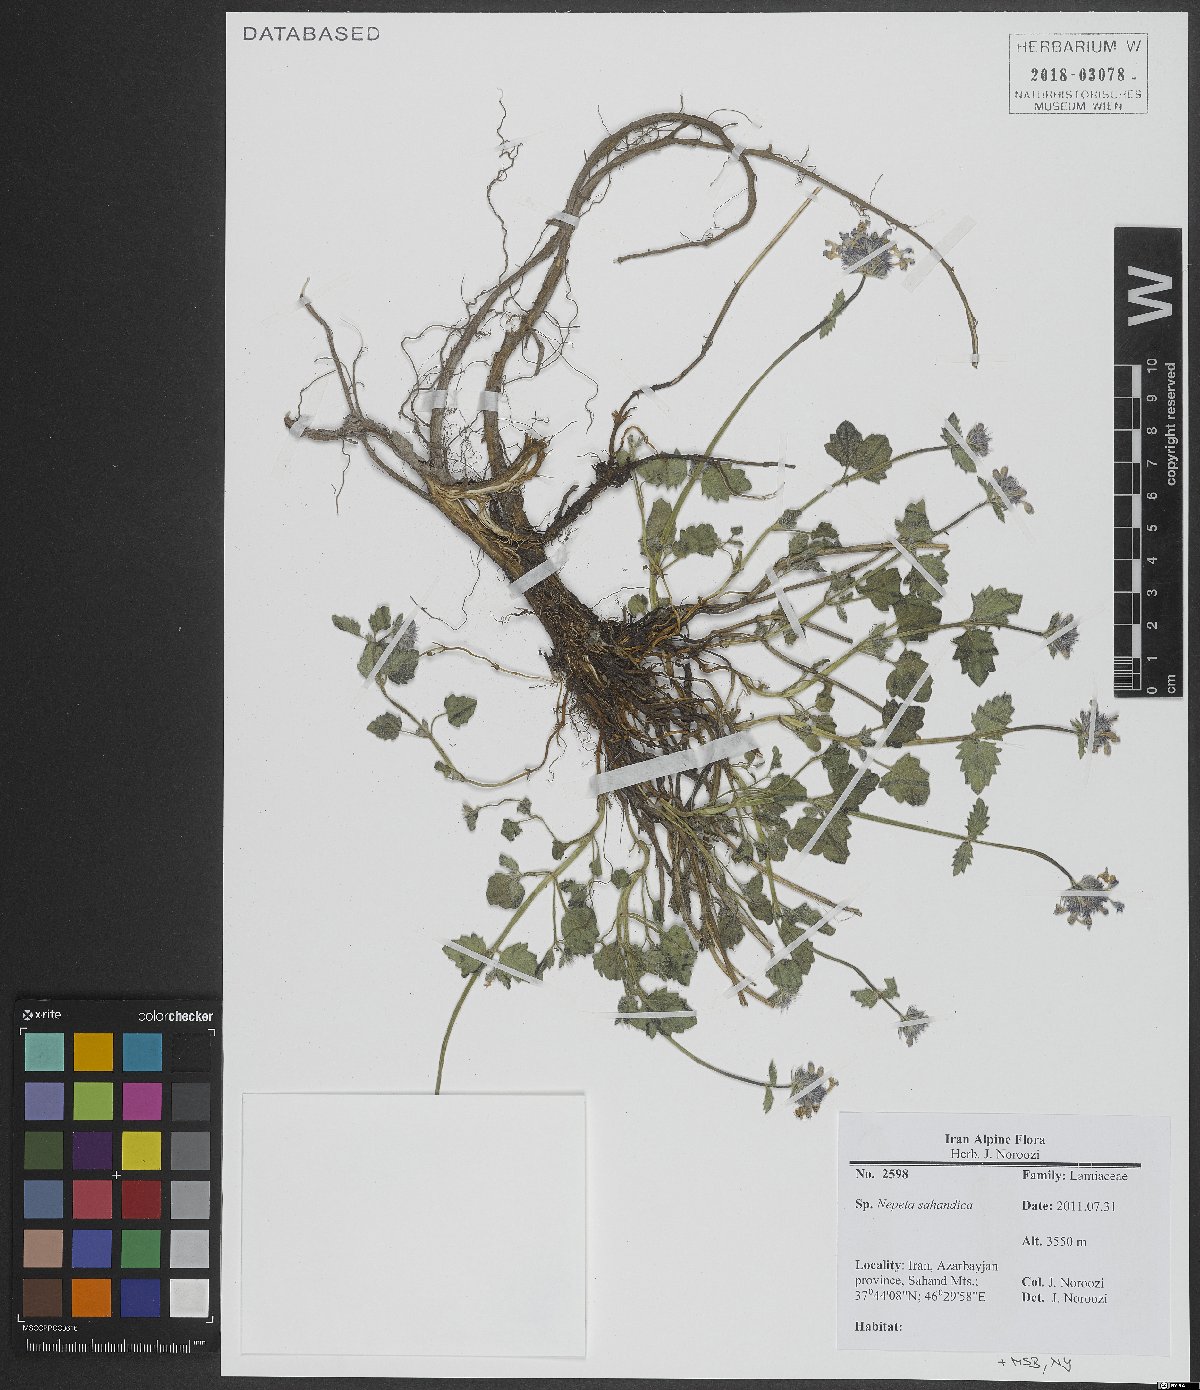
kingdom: Plantae
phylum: Tracheophyta
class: Magnoliopsida
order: Lamiales
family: Lamiaceae
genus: Nepeta
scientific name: Nepeta sahandica
